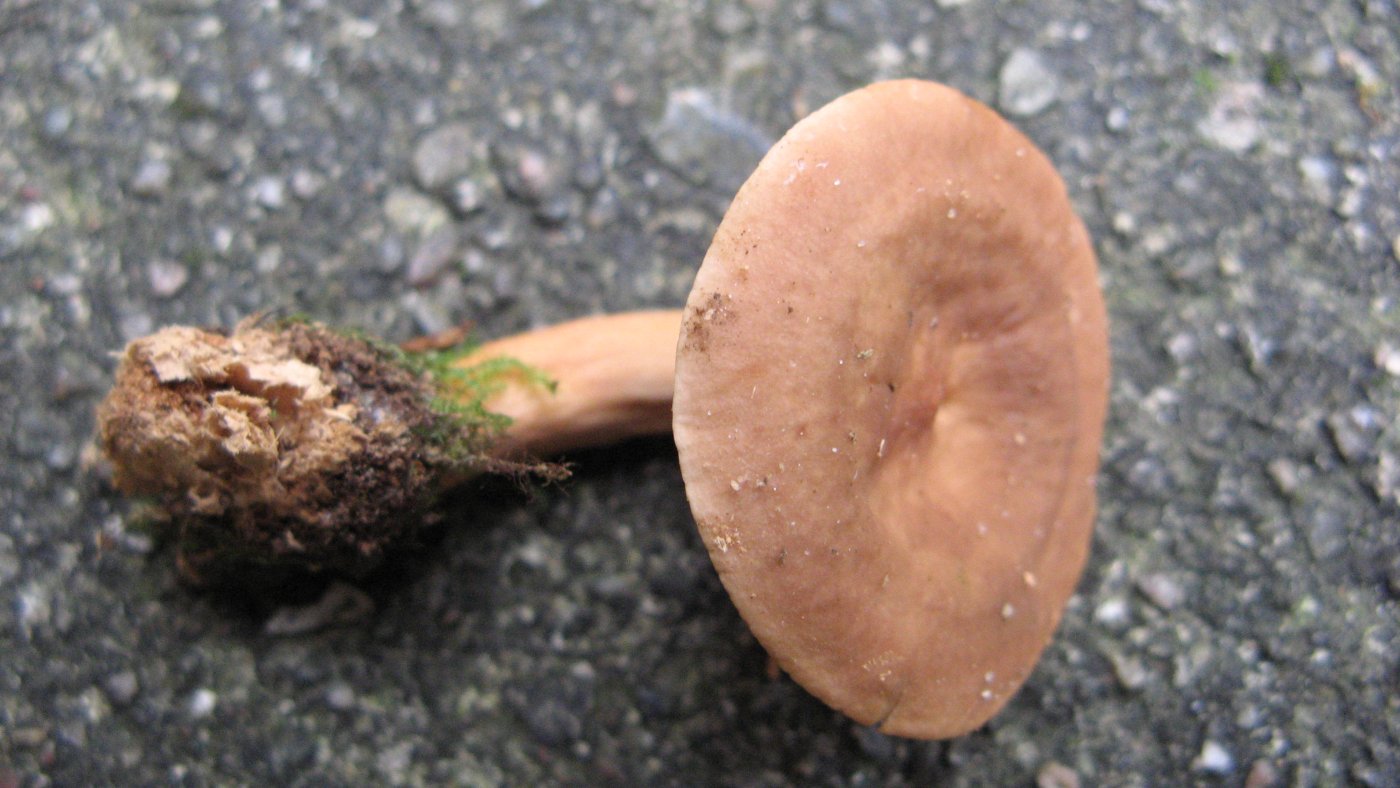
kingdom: Fungi
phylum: Basidiomycota
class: Agaricomycetes
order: Russulales
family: Russulaceae
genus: Lactarius
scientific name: Lactarius subdulcis
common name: sødlig mælkehat
